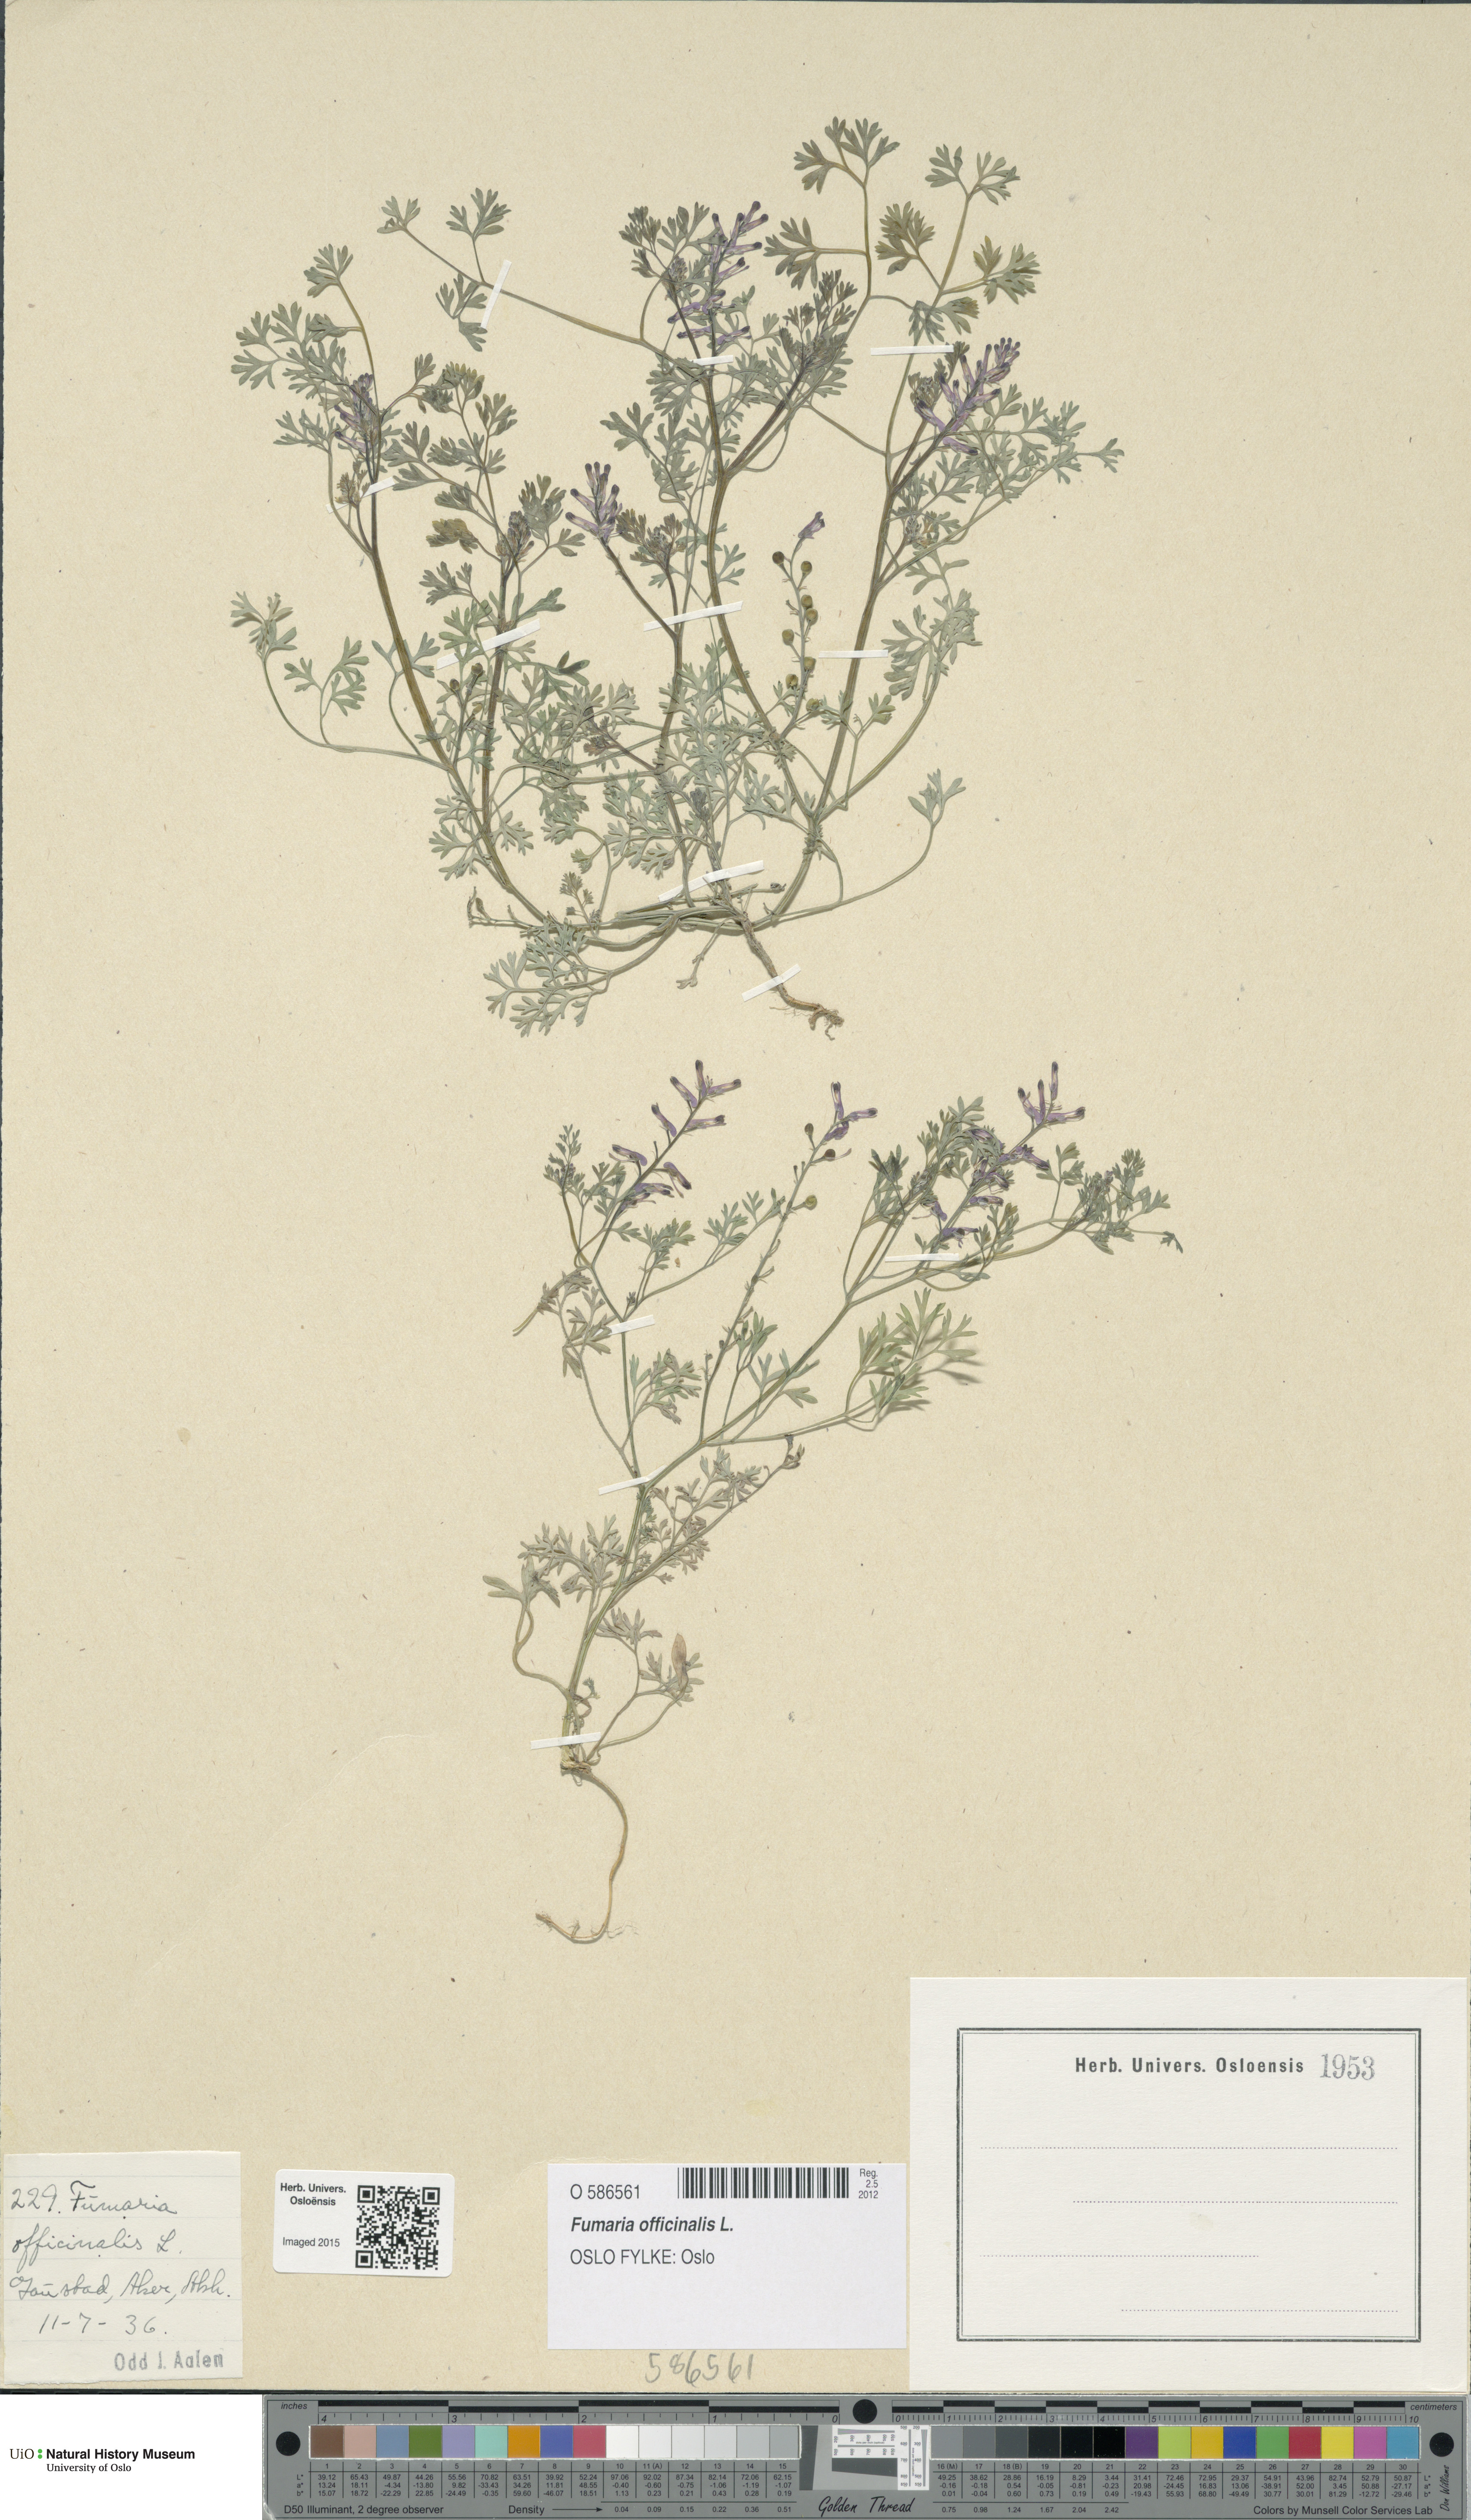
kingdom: Plantae
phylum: Tracheophyta
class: Magnoliopsida
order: Ranunculales
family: Papaveraceae
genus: Fumaria
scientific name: Fumaria officinalis
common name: Common fumitory
